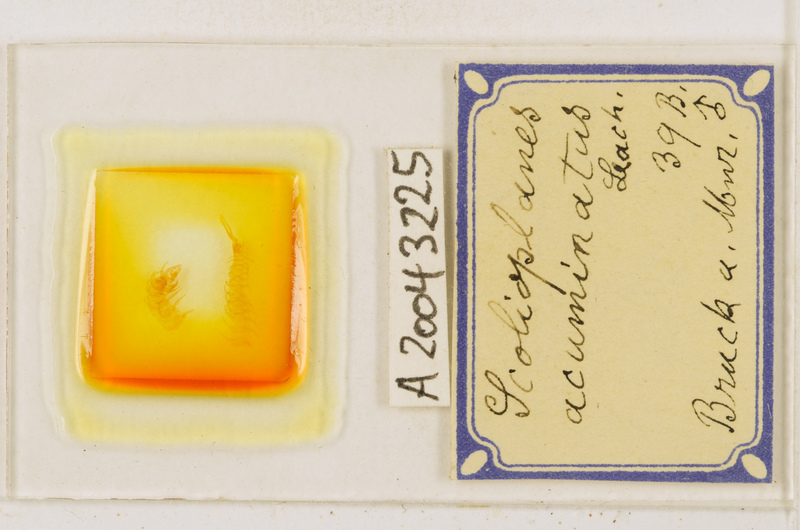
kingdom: Animalia
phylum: Arthropoda
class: Chilopoda
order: Geophilomorpha
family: Linotaeniidae
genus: Strigamia
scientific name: Strigamia acuminata
